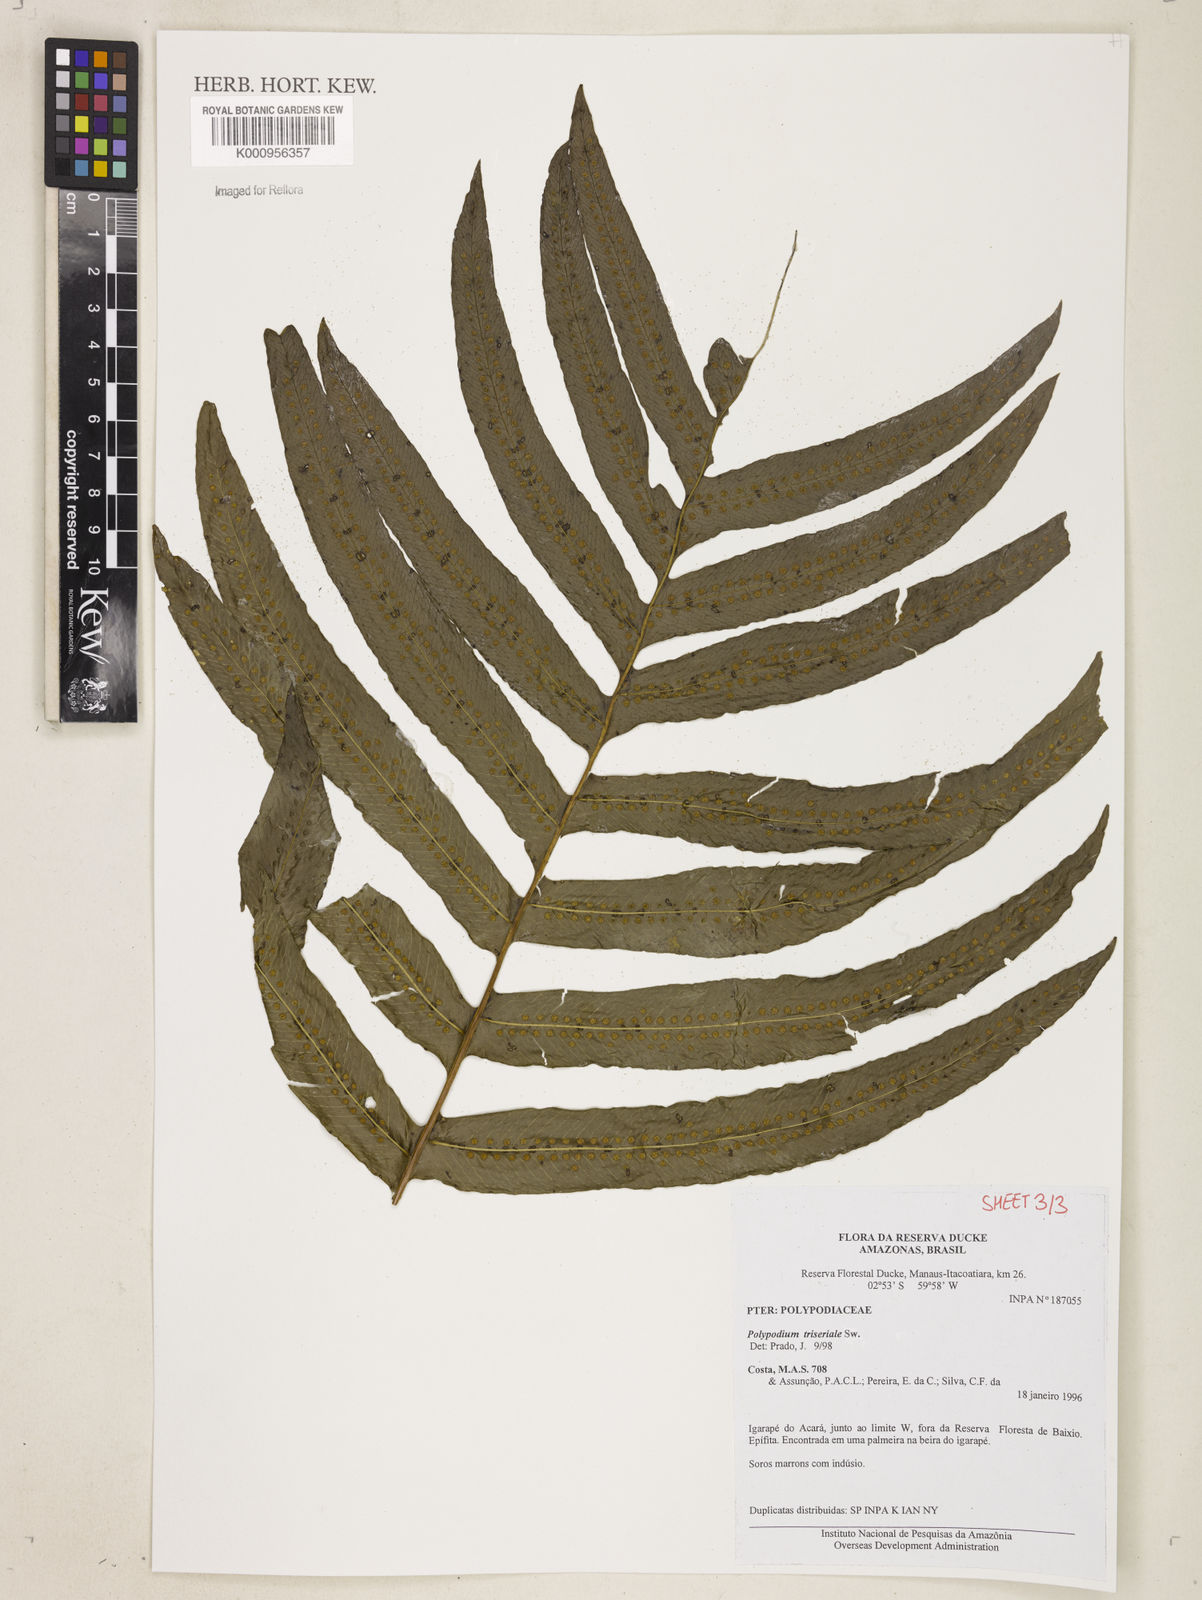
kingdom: Plantae
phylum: Tracheophyta
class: Polypodiopsida
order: Polypodiales
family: Polypodiaceae
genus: Serpocaulon
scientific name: Serpocaulon triseriale
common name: Angle-vein fern
